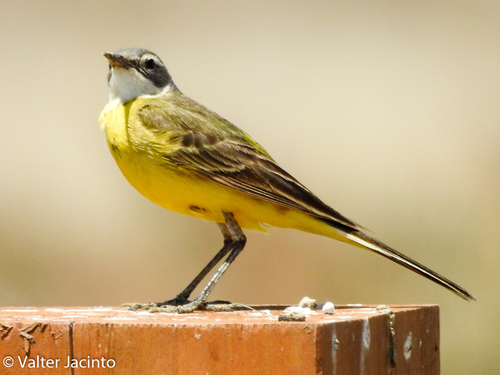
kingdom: Animalia
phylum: Chordata
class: Aves
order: Passeriformes
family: Motacillidae
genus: Motacilla
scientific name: Motacilla flava
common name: Western yellow wagtail
